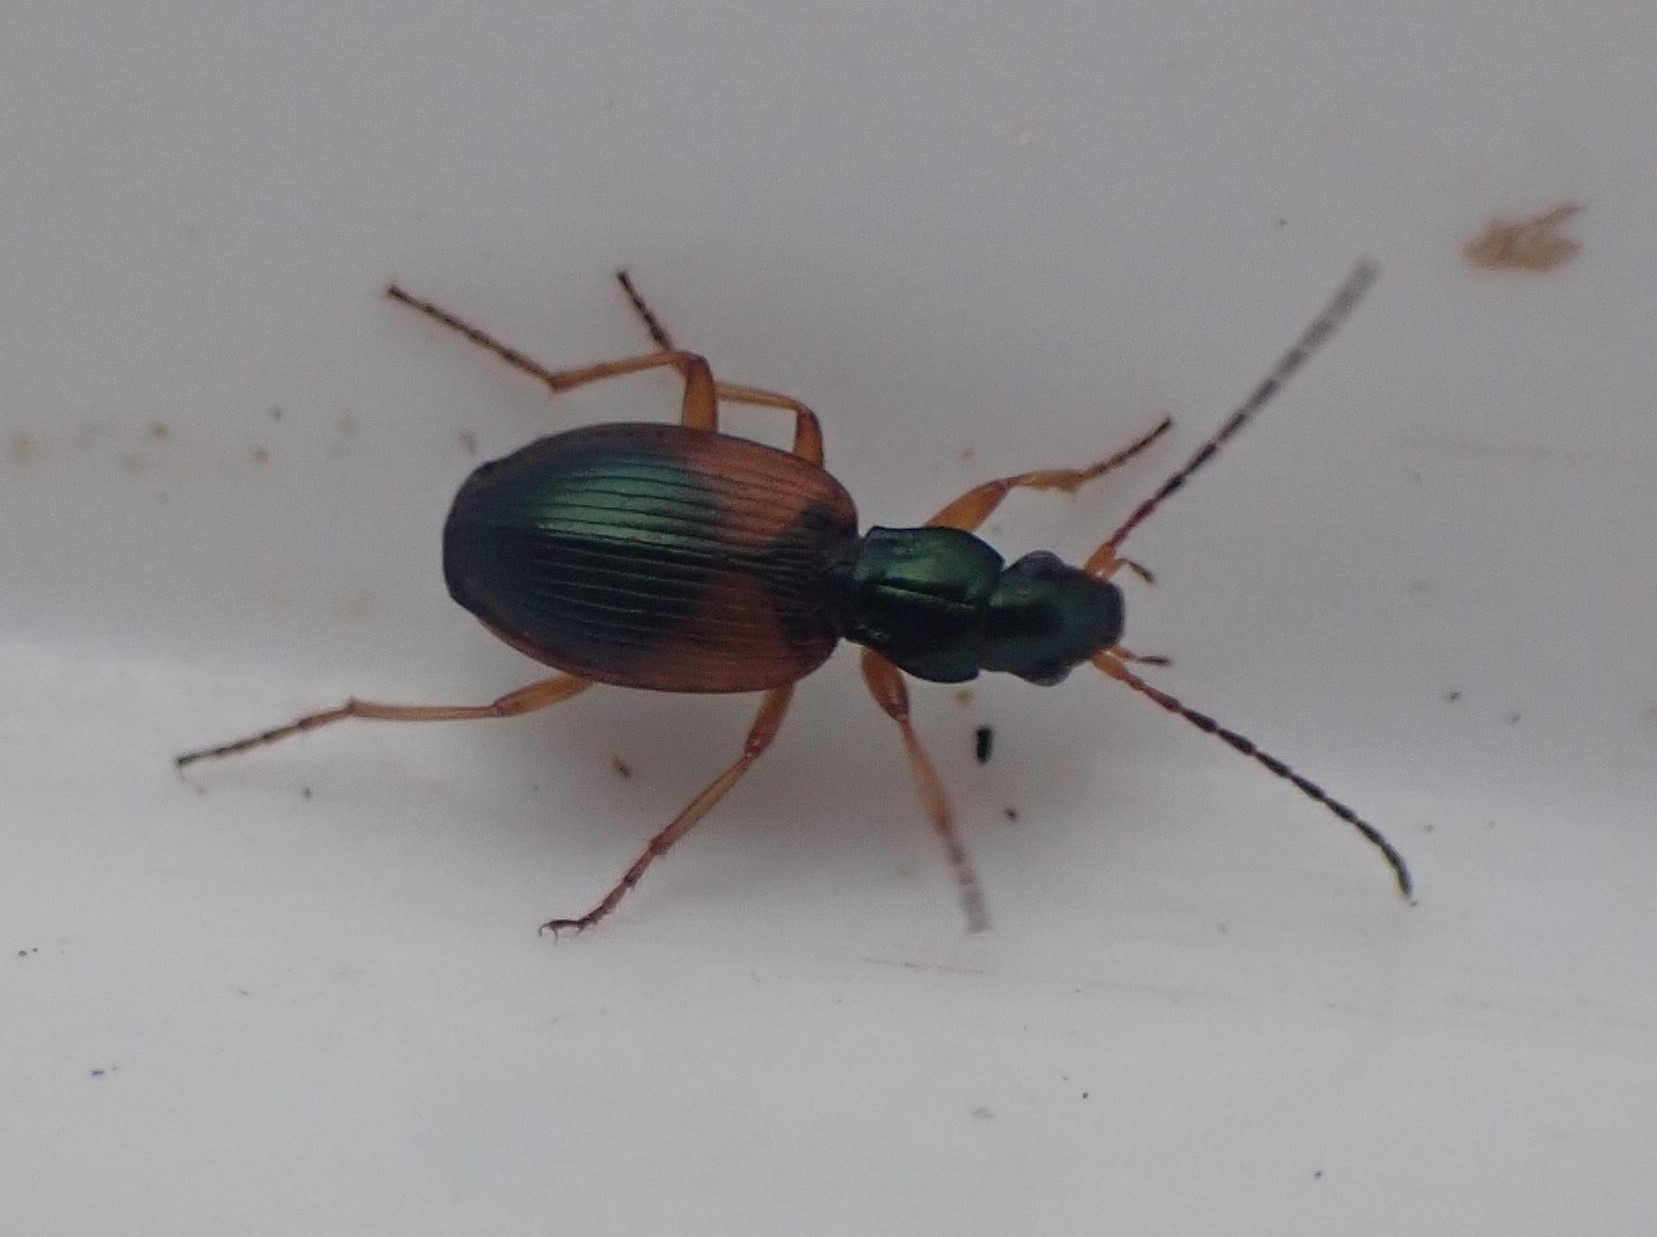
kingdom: Animalia
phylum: Arthropoda
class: Insecta
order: Coleoptera
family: Carabidae
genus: Anchomenus
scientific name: Anchomenus dorsalis
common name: Spraglet kvikløber
